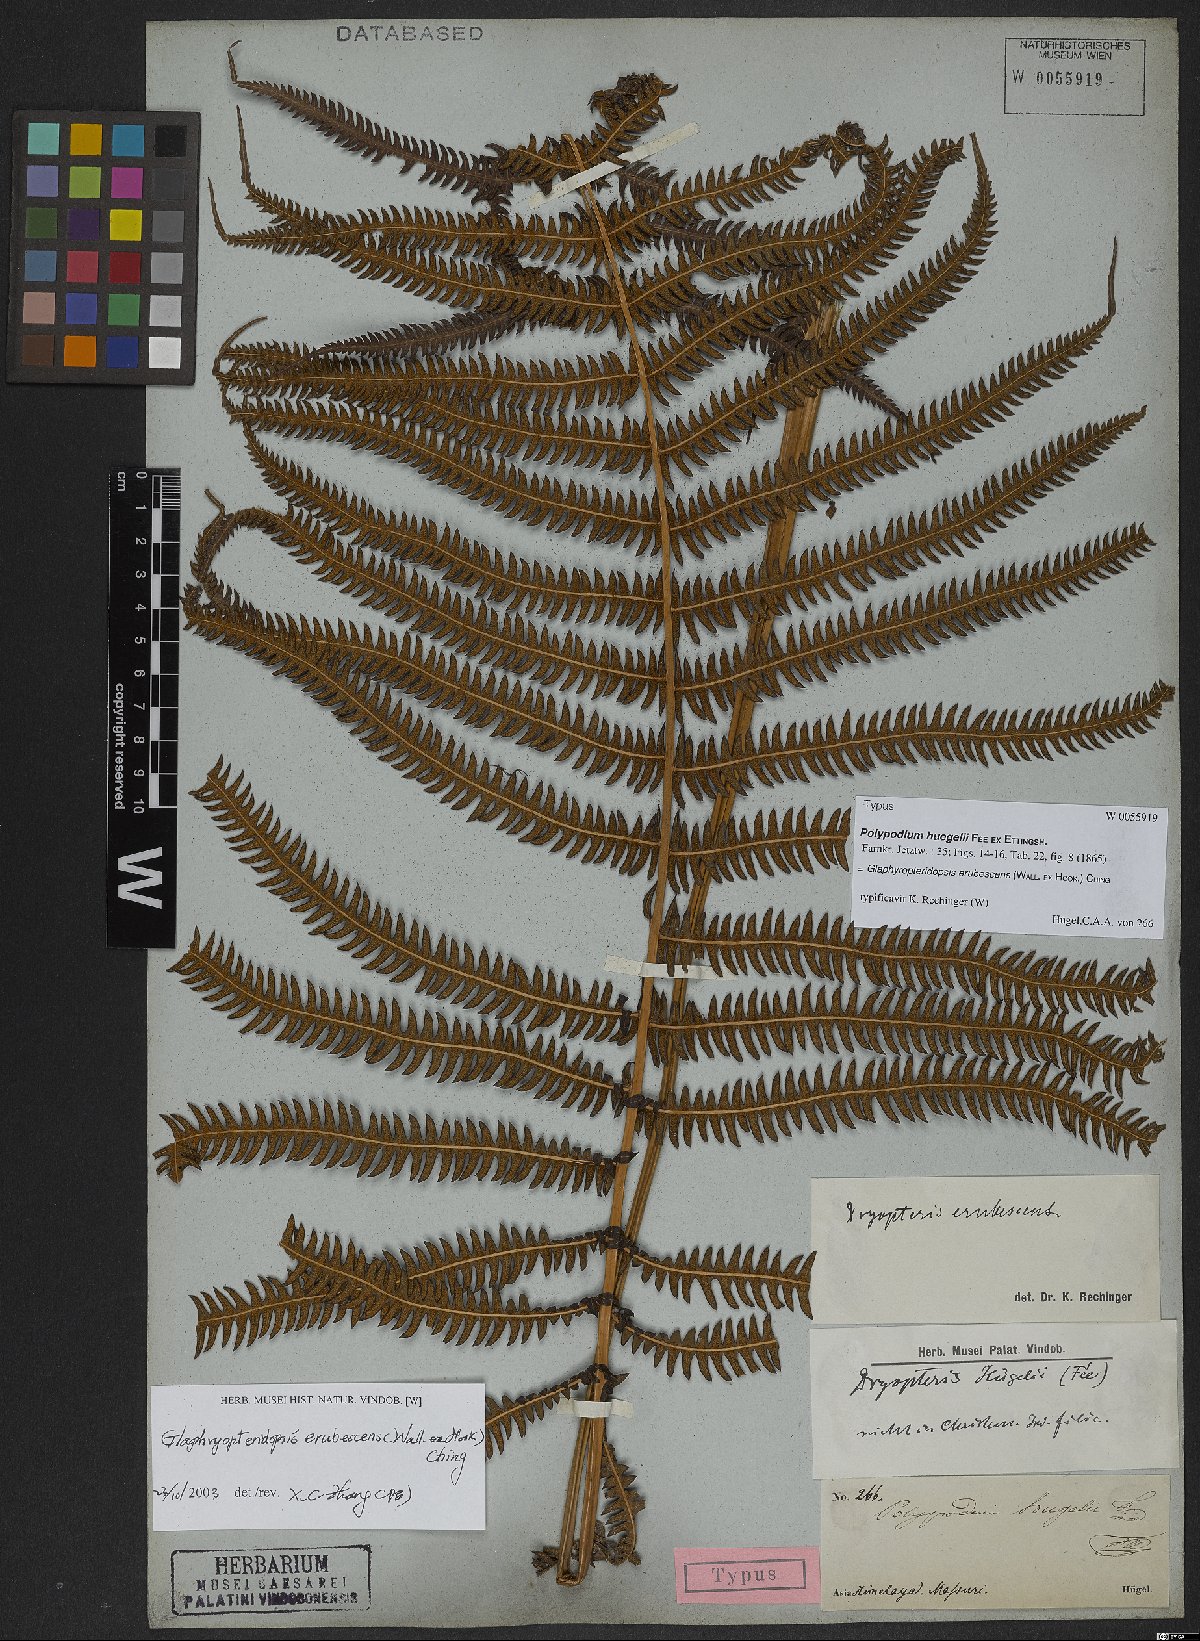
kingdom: Plantae
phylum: Tracheophyta
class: Polypodiopsida
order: Polypodiales
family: Thelypteridaceae
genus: Glaphyropteridopsis
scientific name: Glaphyropteridopsis erubescens
